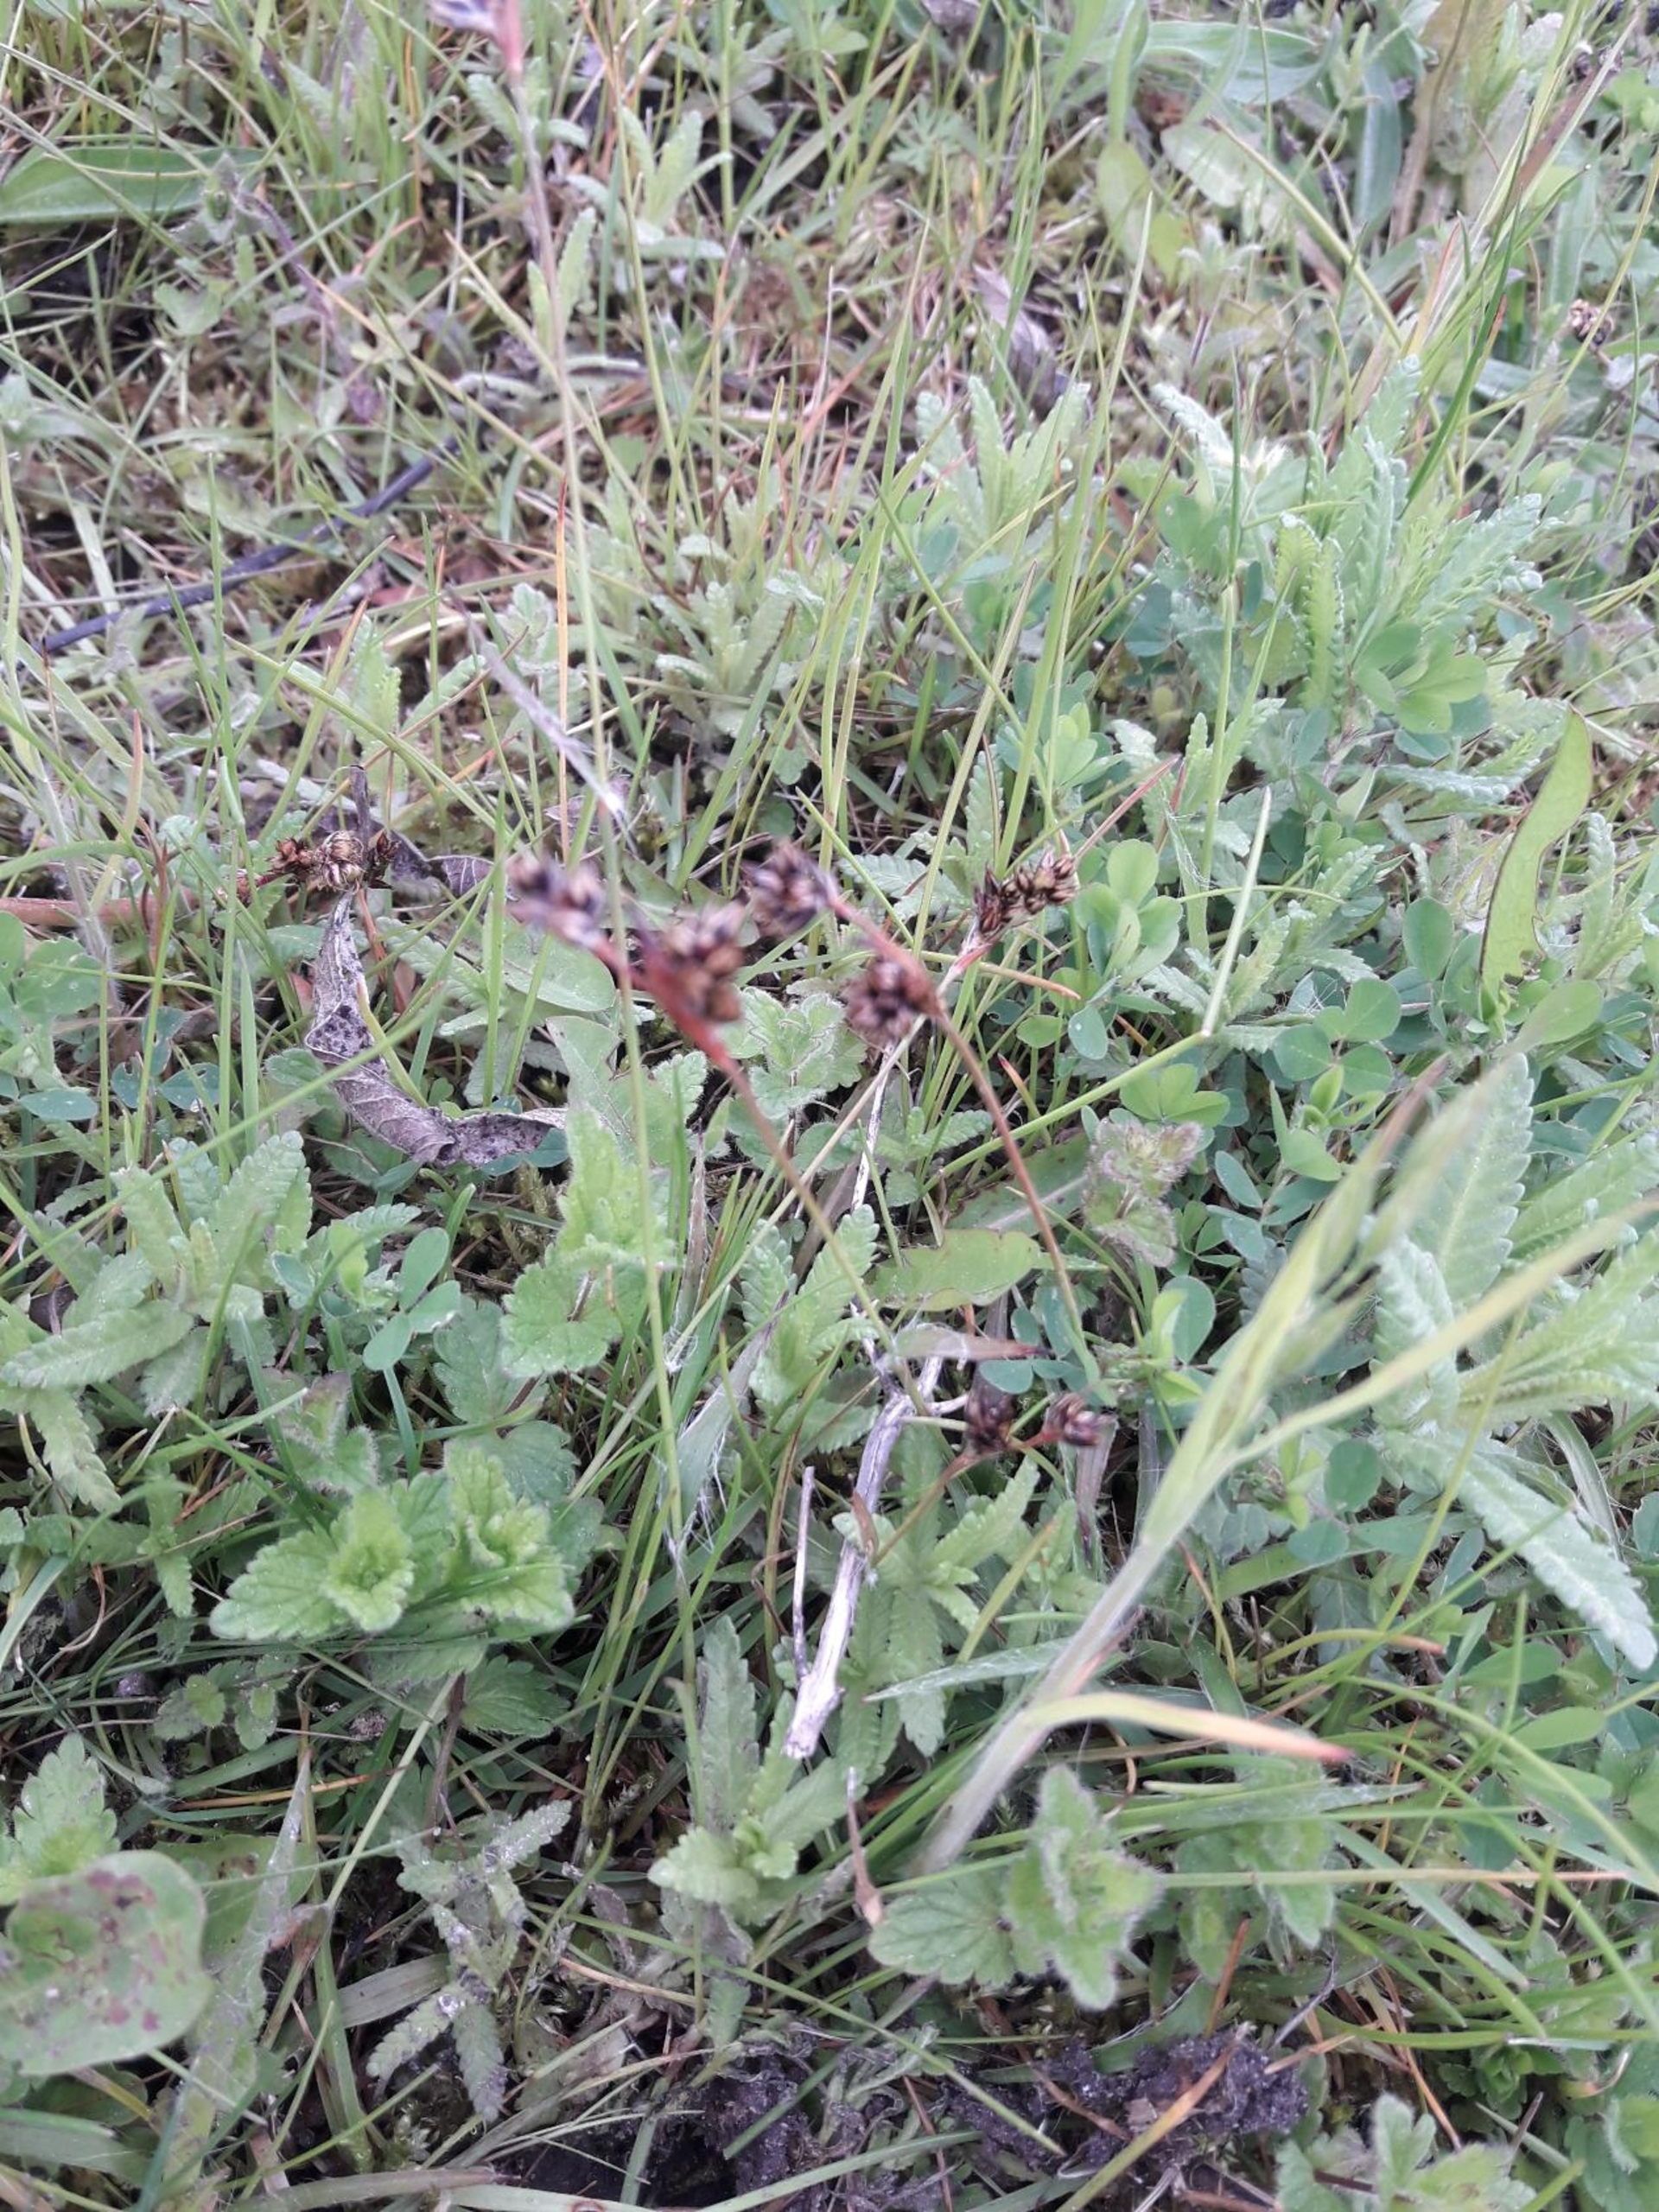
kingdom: Plantae
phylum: Tracheophyta
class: Liliopsida
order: Poales
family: Juncaceae
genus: Luzula
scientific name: Luzula campestris
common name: Mark-frytle
